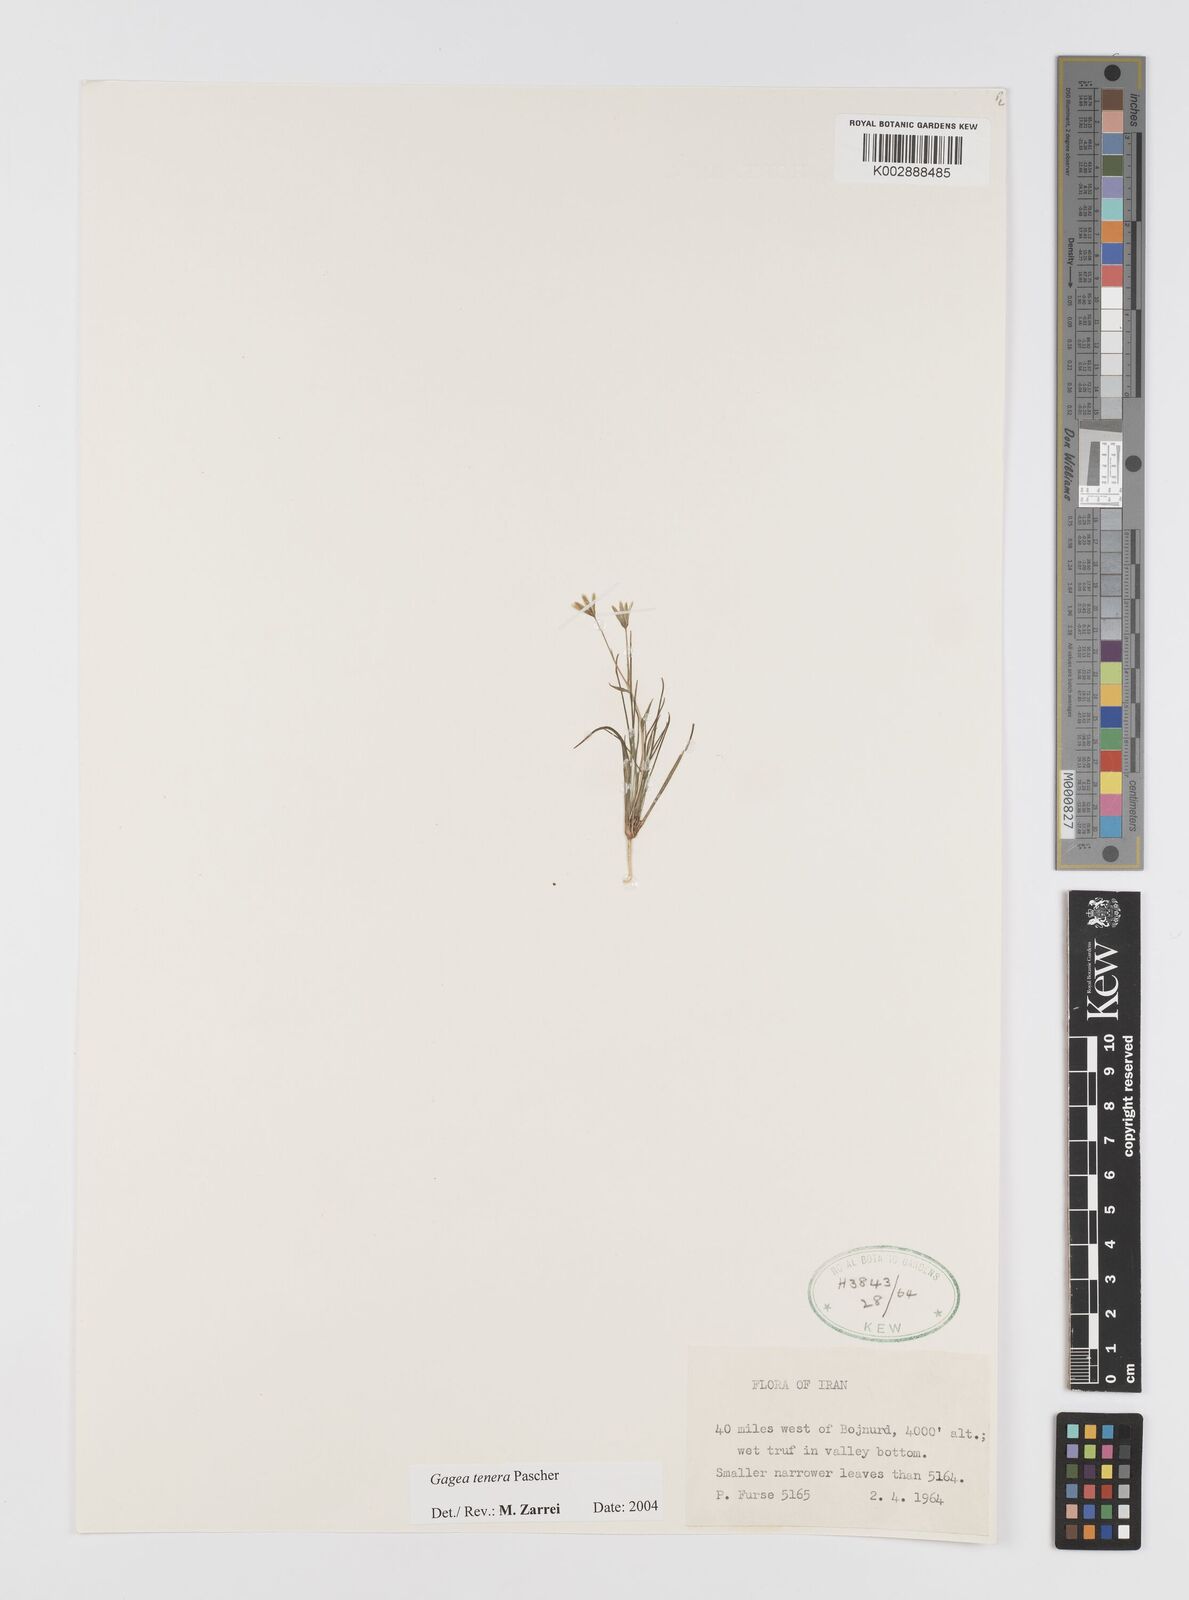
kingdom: Plantae
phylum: Tracheophyta
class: Liliopsida
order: Liliales
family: Liliaceae
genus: Gagea
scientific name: Gagea tenera
